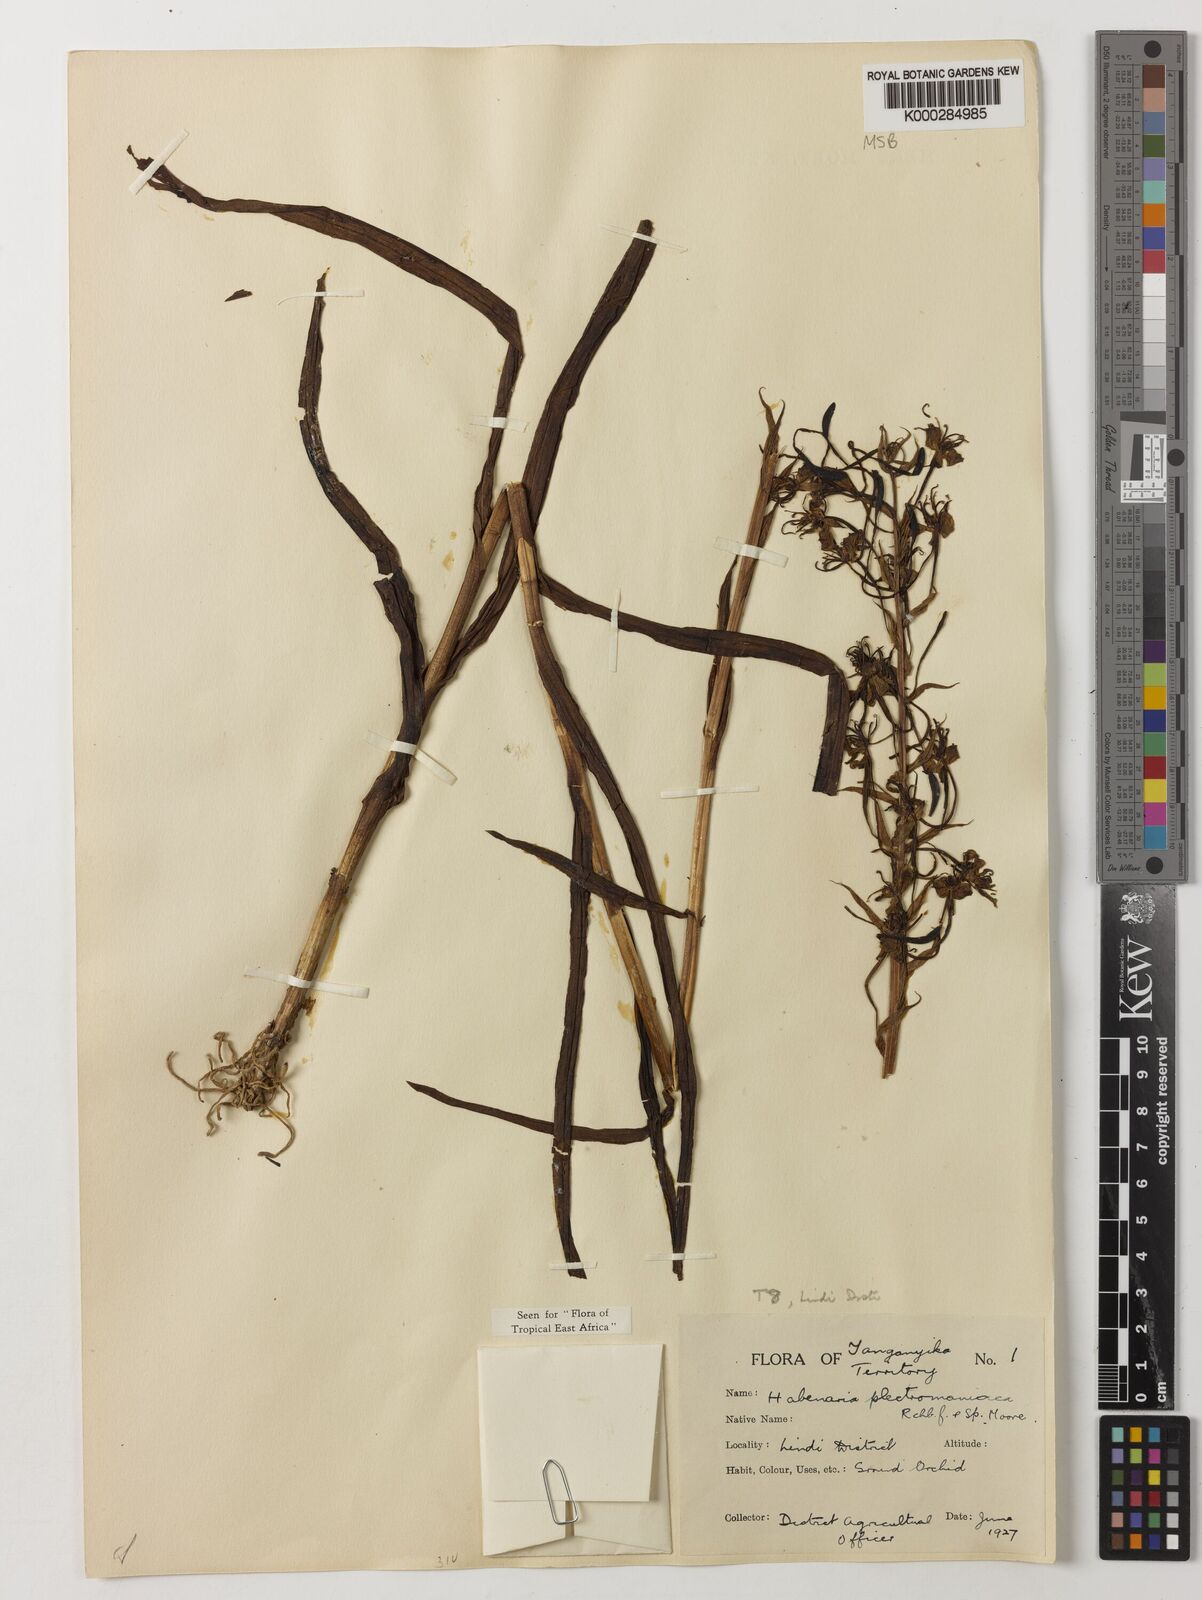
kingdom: Plantae
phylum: Tracheophyta
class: Liliopsida
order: Asparagales
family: Orchidaceae
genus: Habenaria
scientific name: Habenaria plectromaniaca
